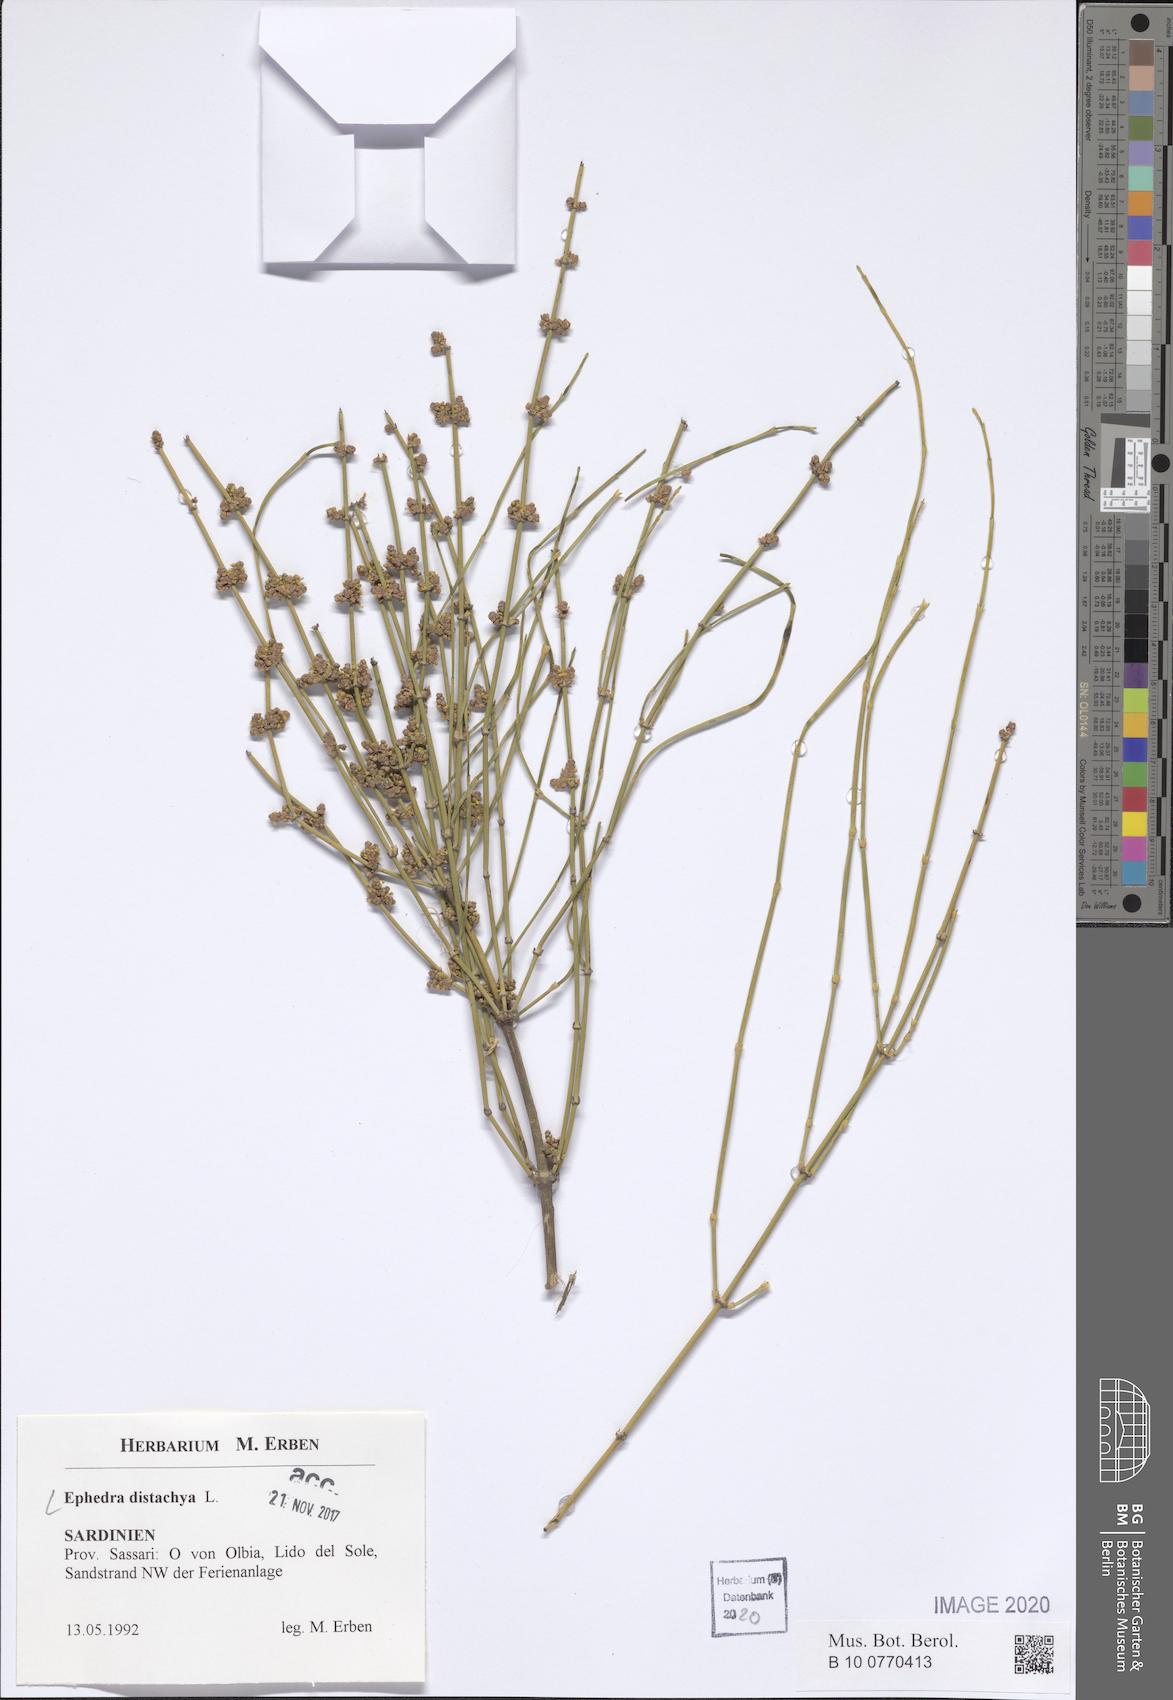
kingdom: Plantae
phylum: Tracheophyta
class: Gnetopsida
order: Ephedrales
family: Ephedraceae
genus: Ephedra
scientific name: Ephedra distachya
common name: Sea grape
